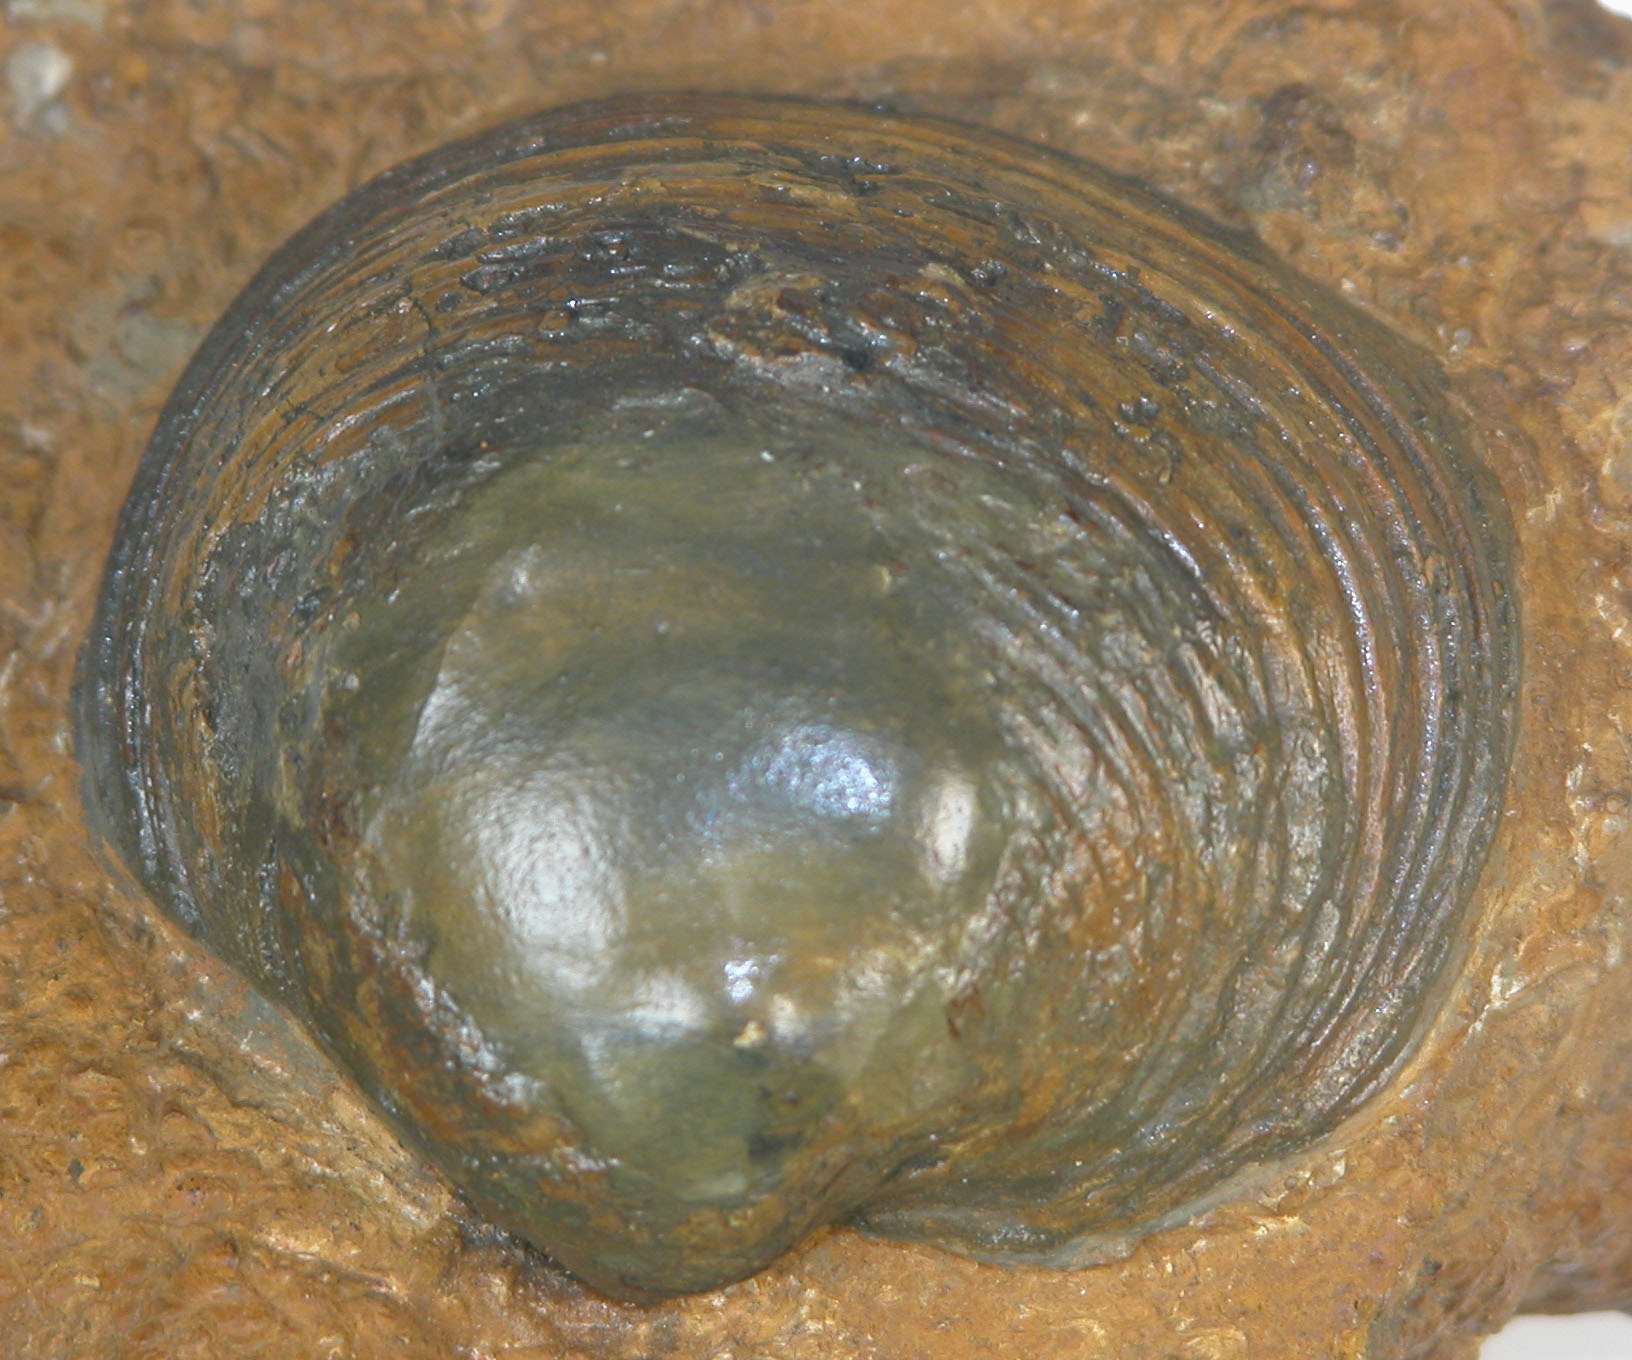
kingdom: Animalia
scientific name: Animalia
